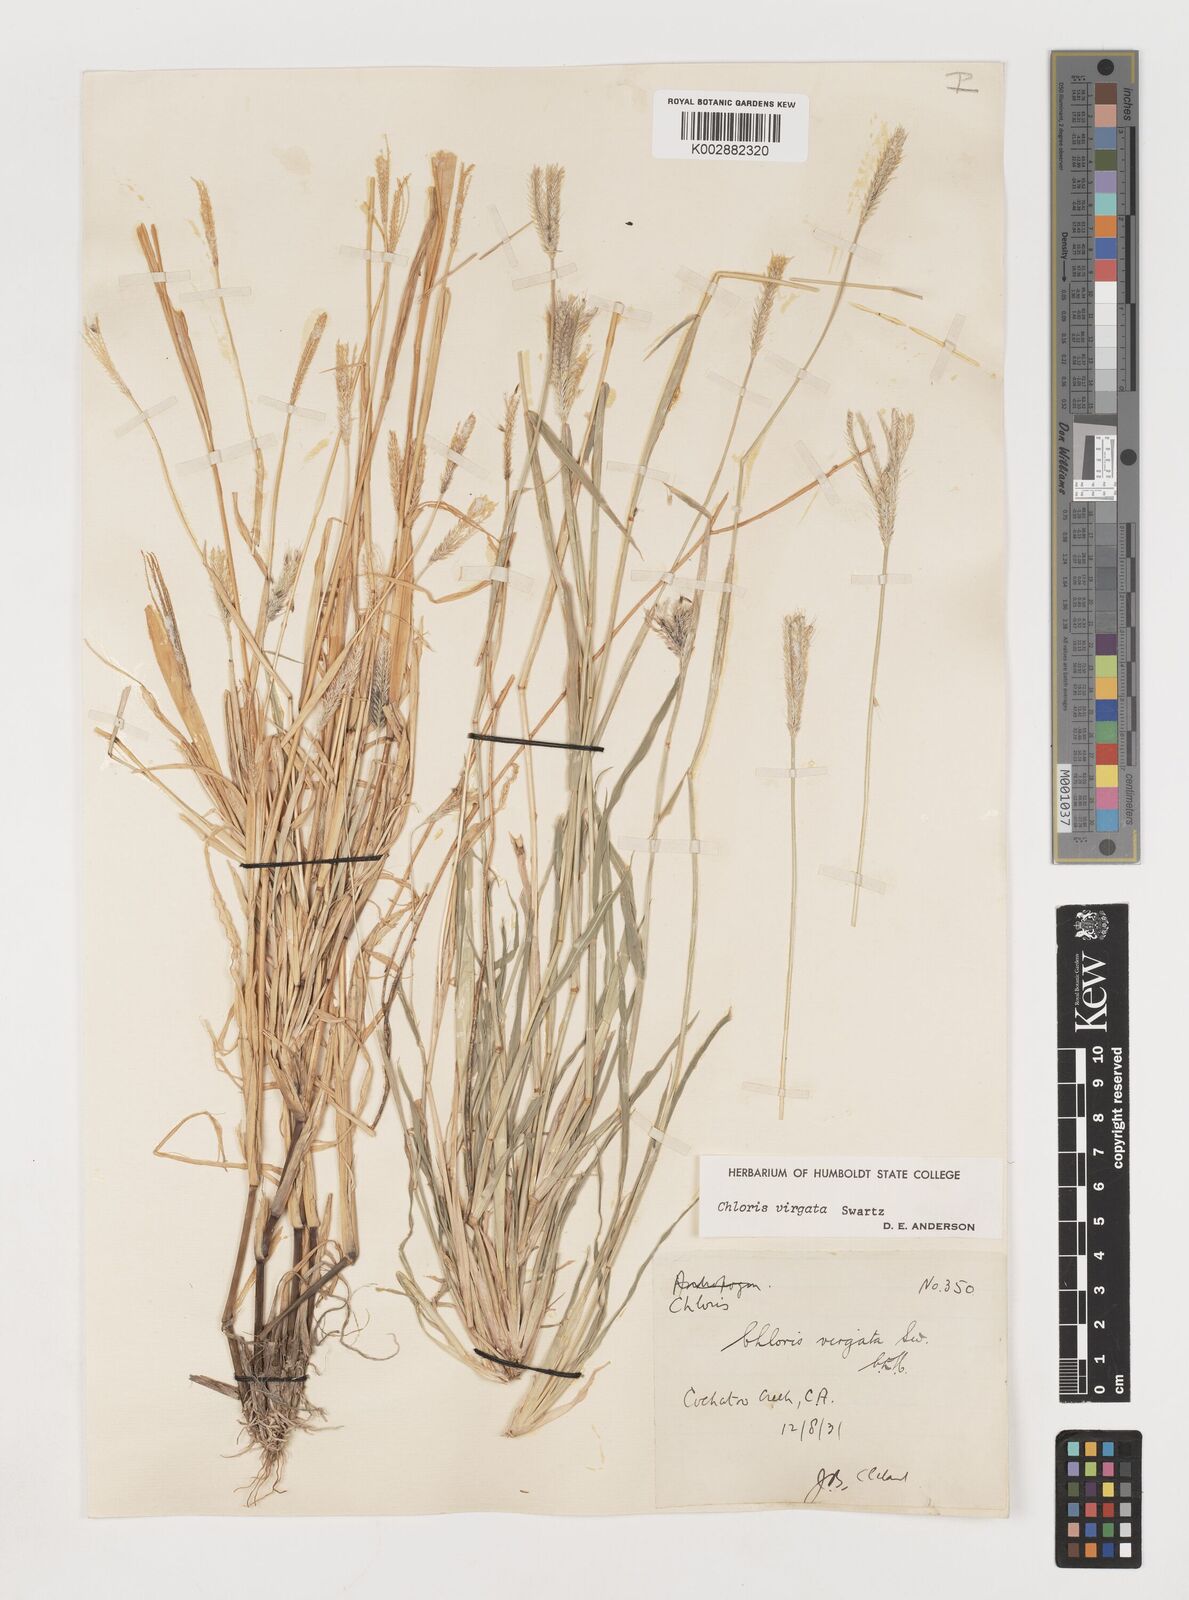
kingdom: Plantae
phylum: Tracheophyta
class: Liliopsida
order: Poales
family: Poaceae
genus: Chloris
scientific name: Chloris virgata
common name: Feathery rhodes-grass
